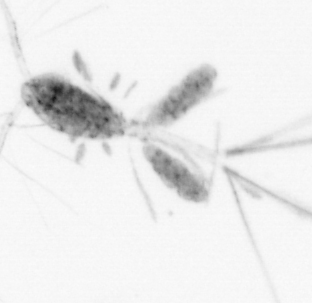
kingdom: Animalia
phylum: Arthropoda
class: Copepoda
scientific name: Copepoda
